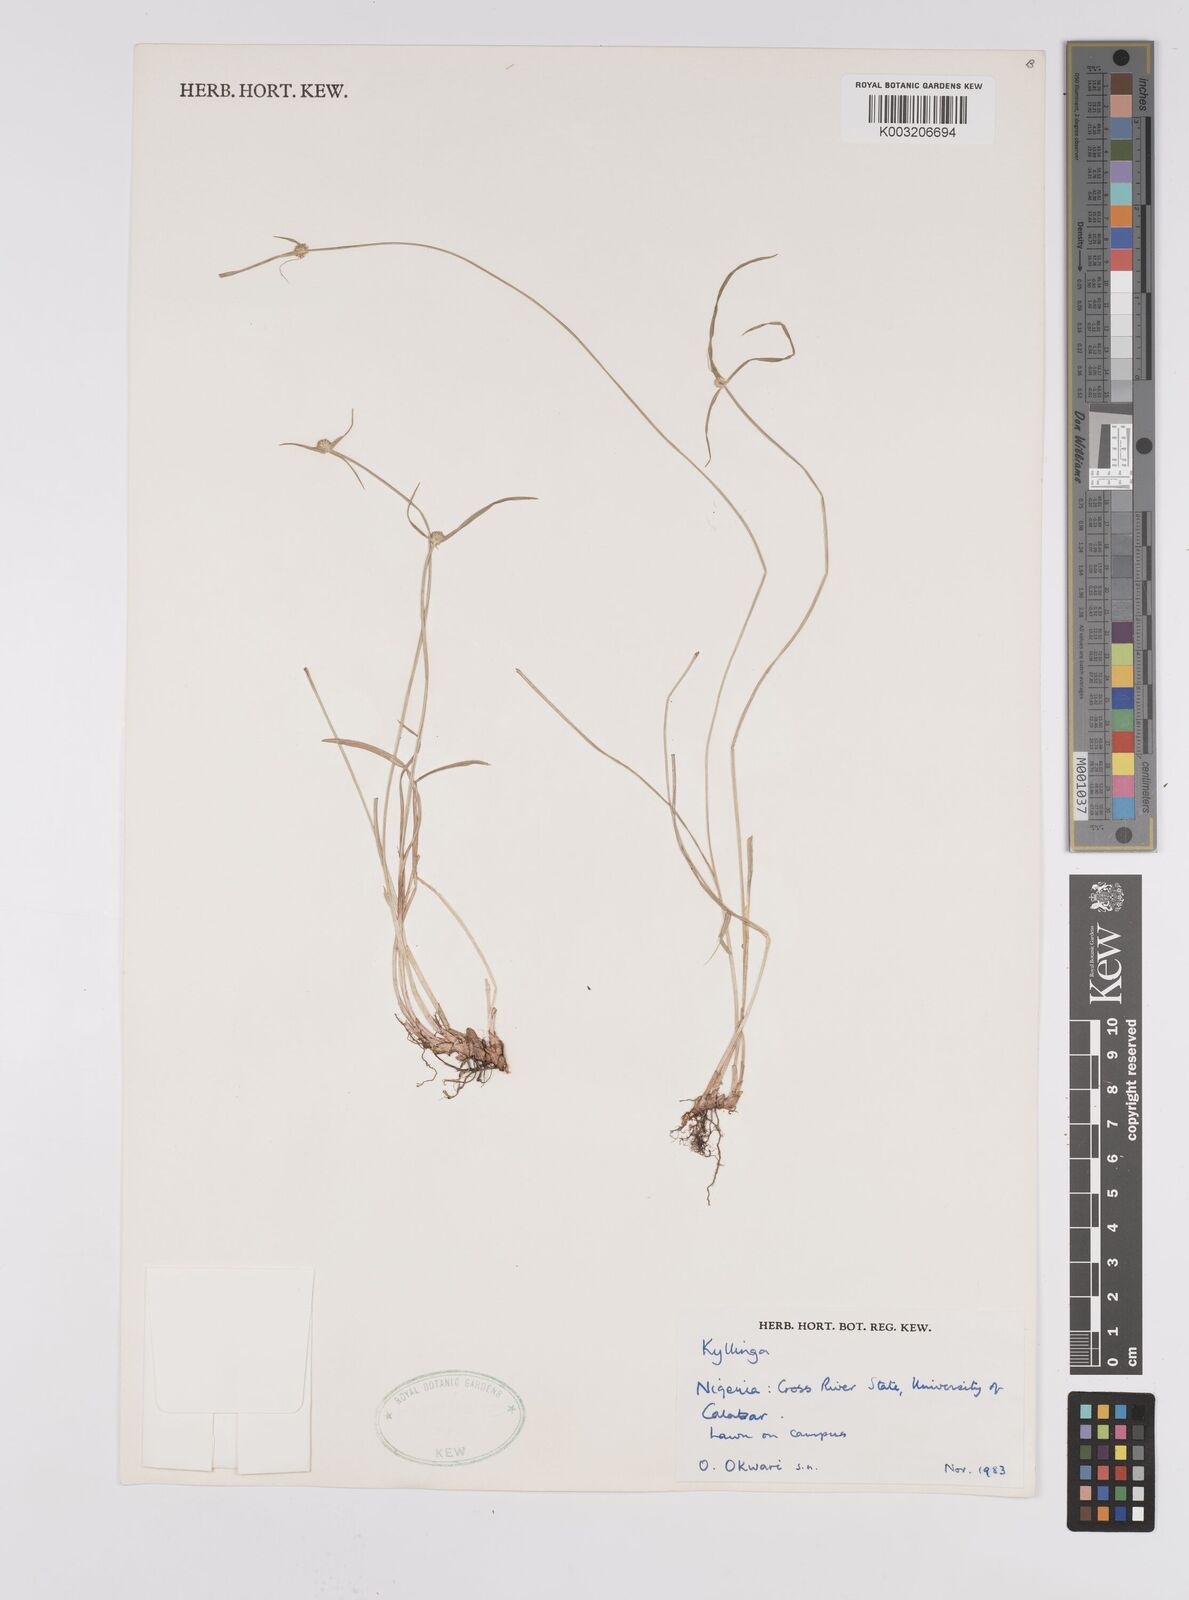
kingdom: Plantae
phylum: Tracheophyta
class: Liliopsida
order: Poales
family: Cyperaceae
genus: Cyperus
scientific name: Cyperus
